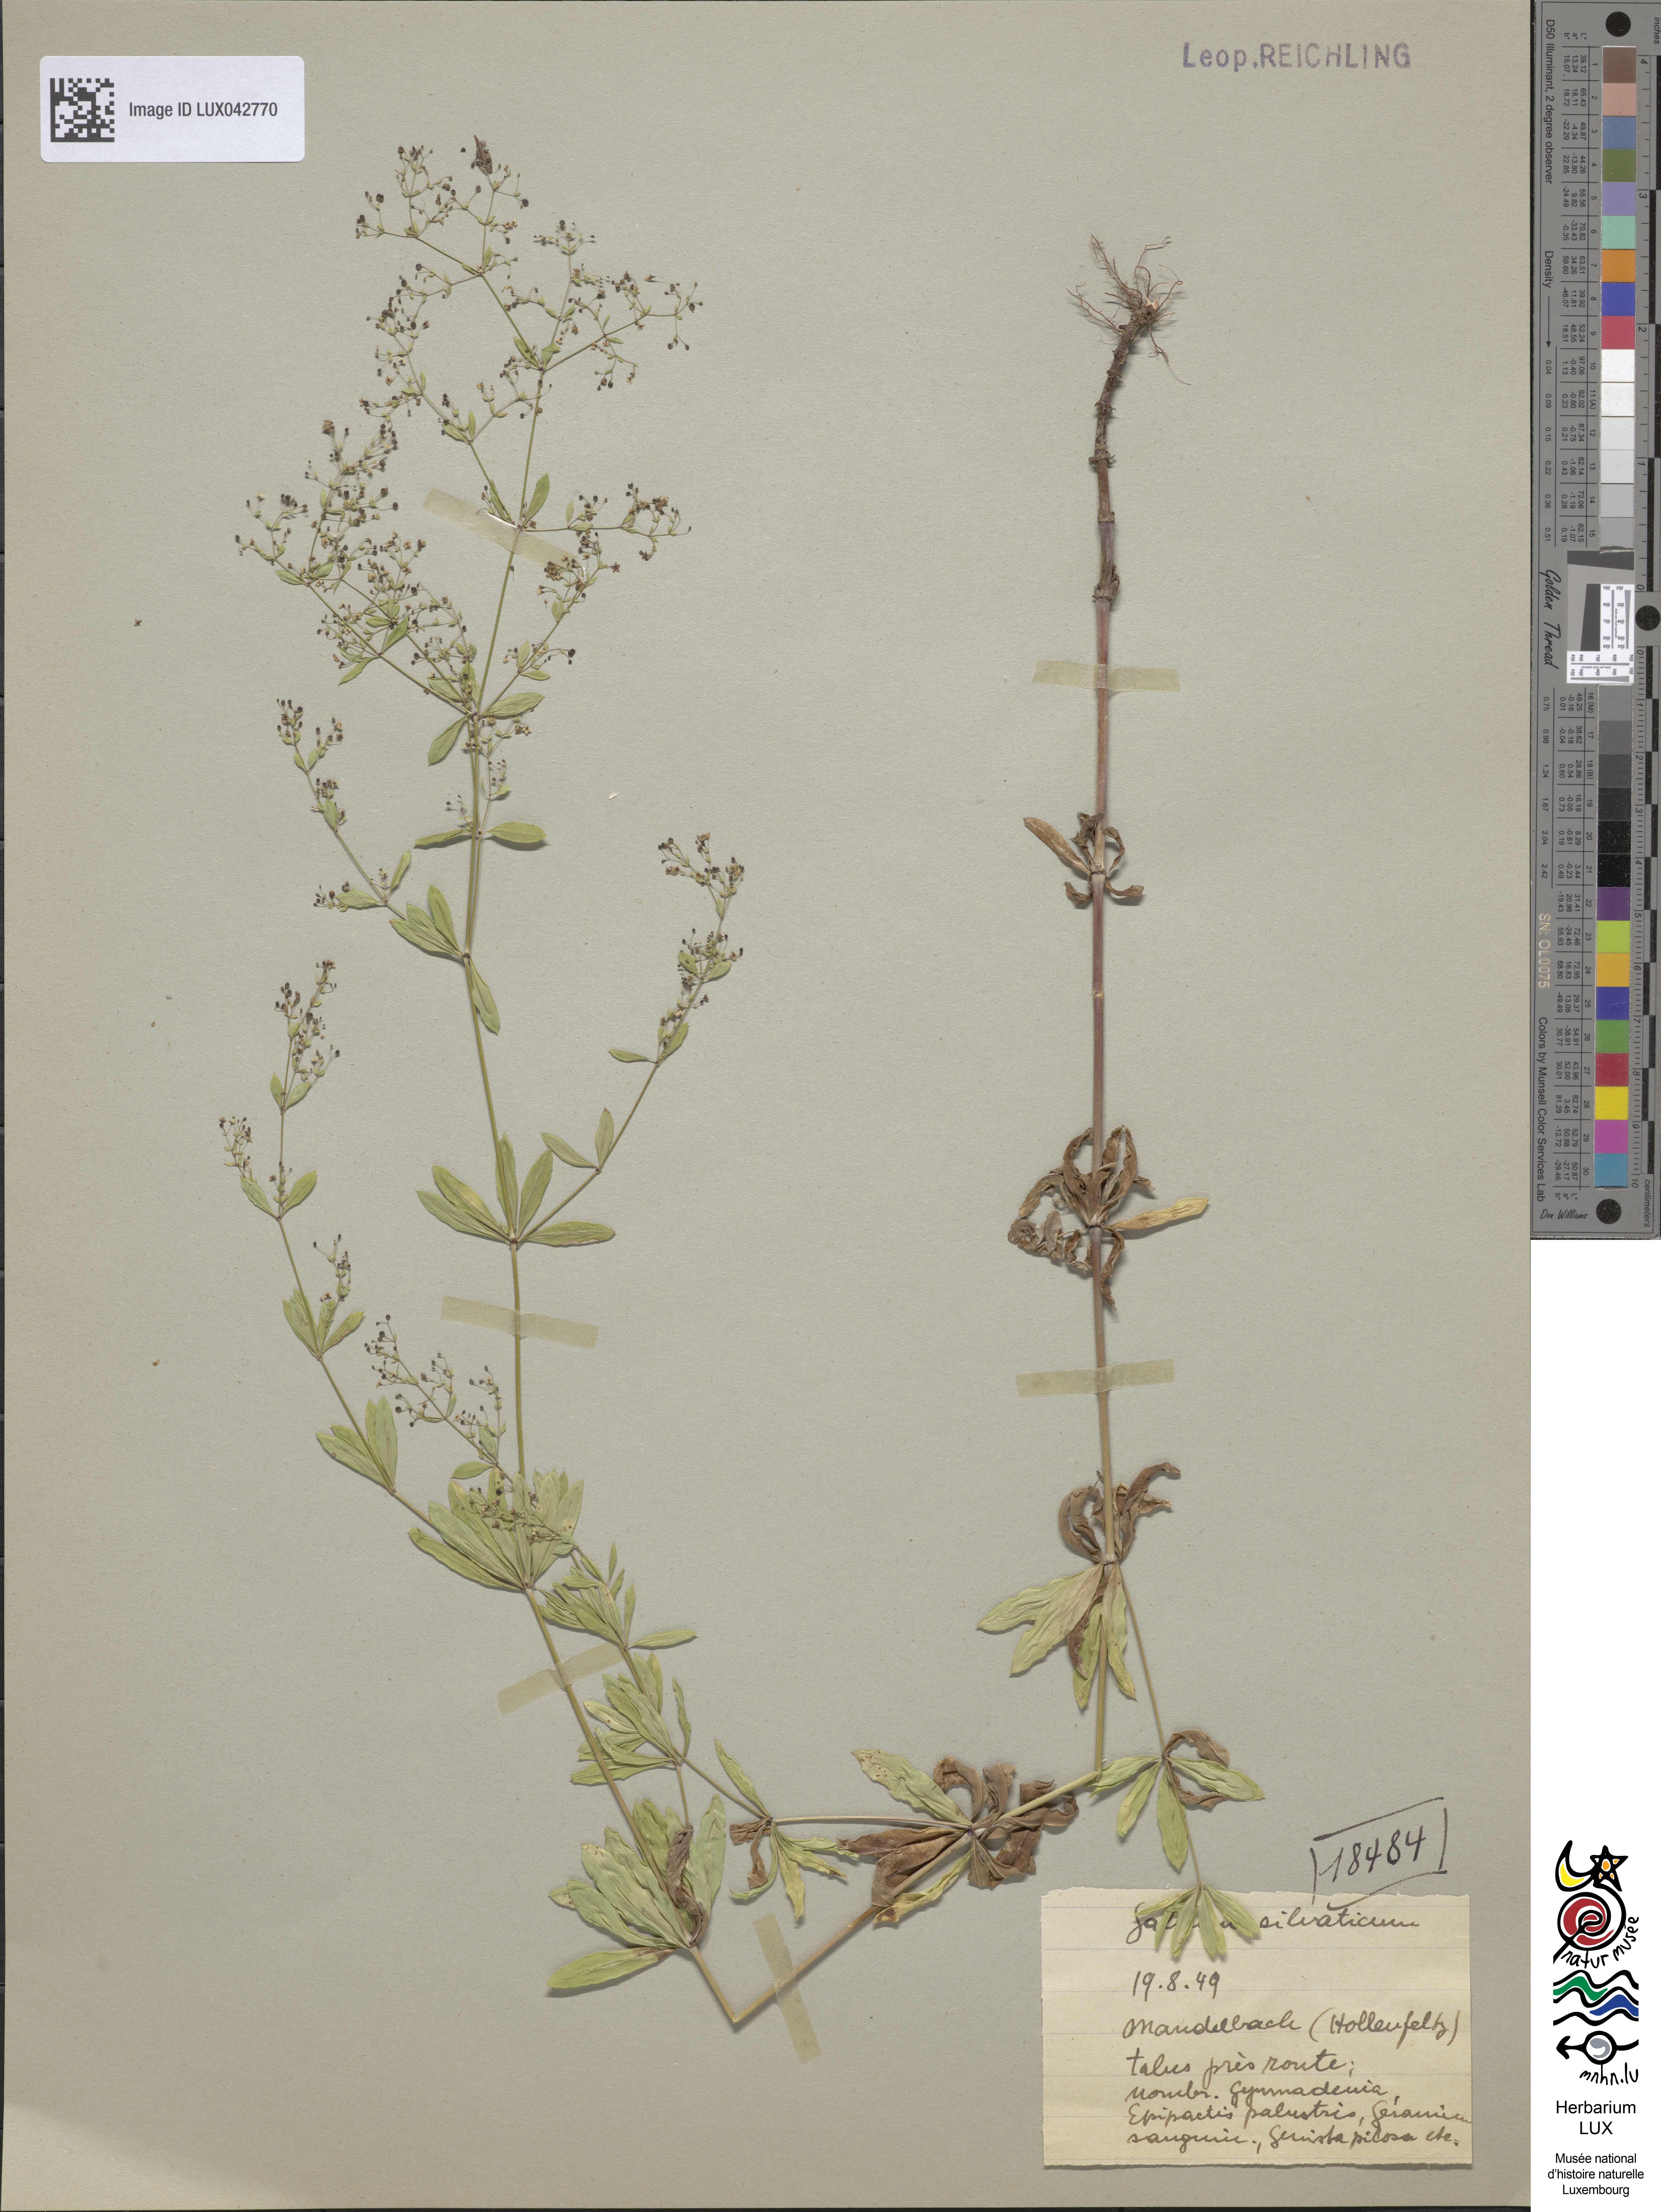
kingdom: Plantae
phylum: Tracheophyta
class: Magnoliopsida
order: Gentianales
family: Rubiaceae
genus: Galium
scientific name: Galium sylvaticum
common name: Wood bedstraw
